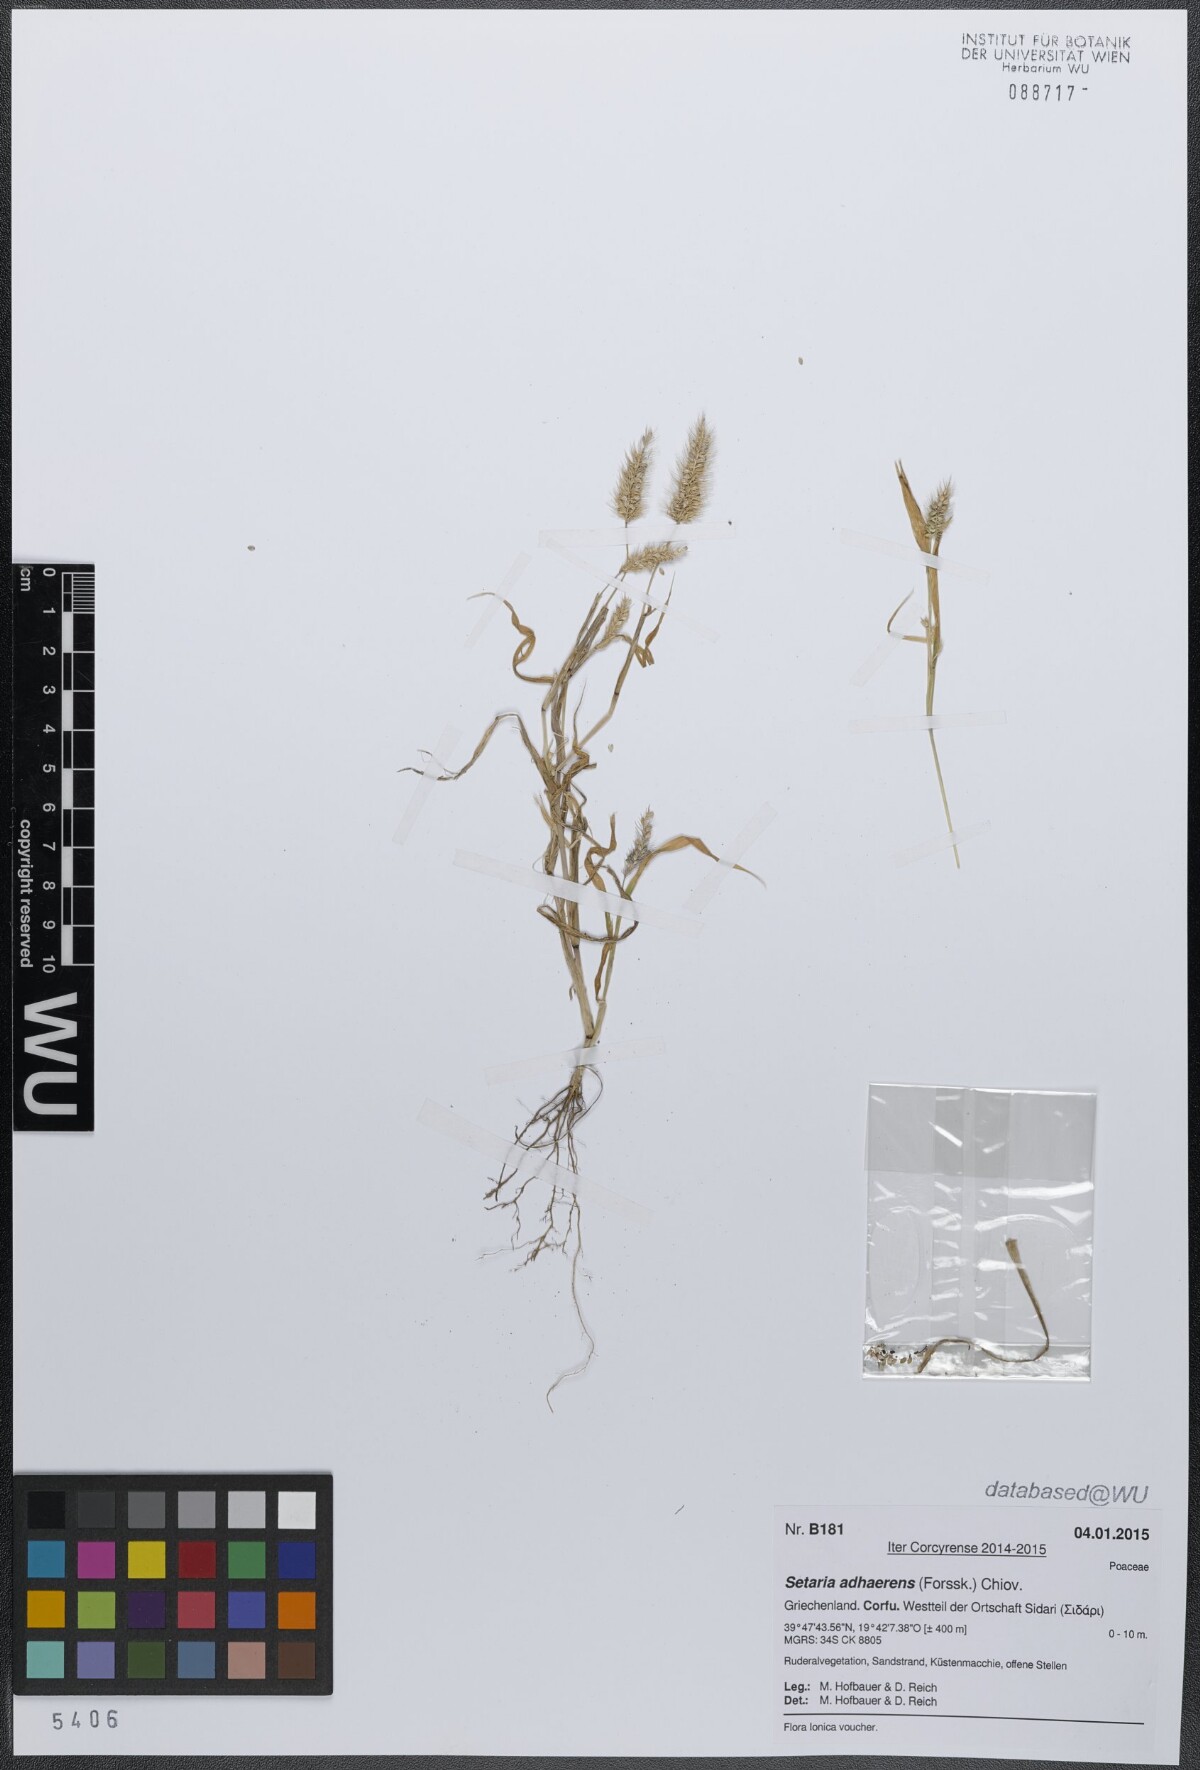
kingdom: Plantae
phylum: Tracheophyta
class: Liliopsida
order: Poales
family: Poaceae
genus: Setaria
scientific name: Setaria adhaerens
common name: Adherent bristle-grass
